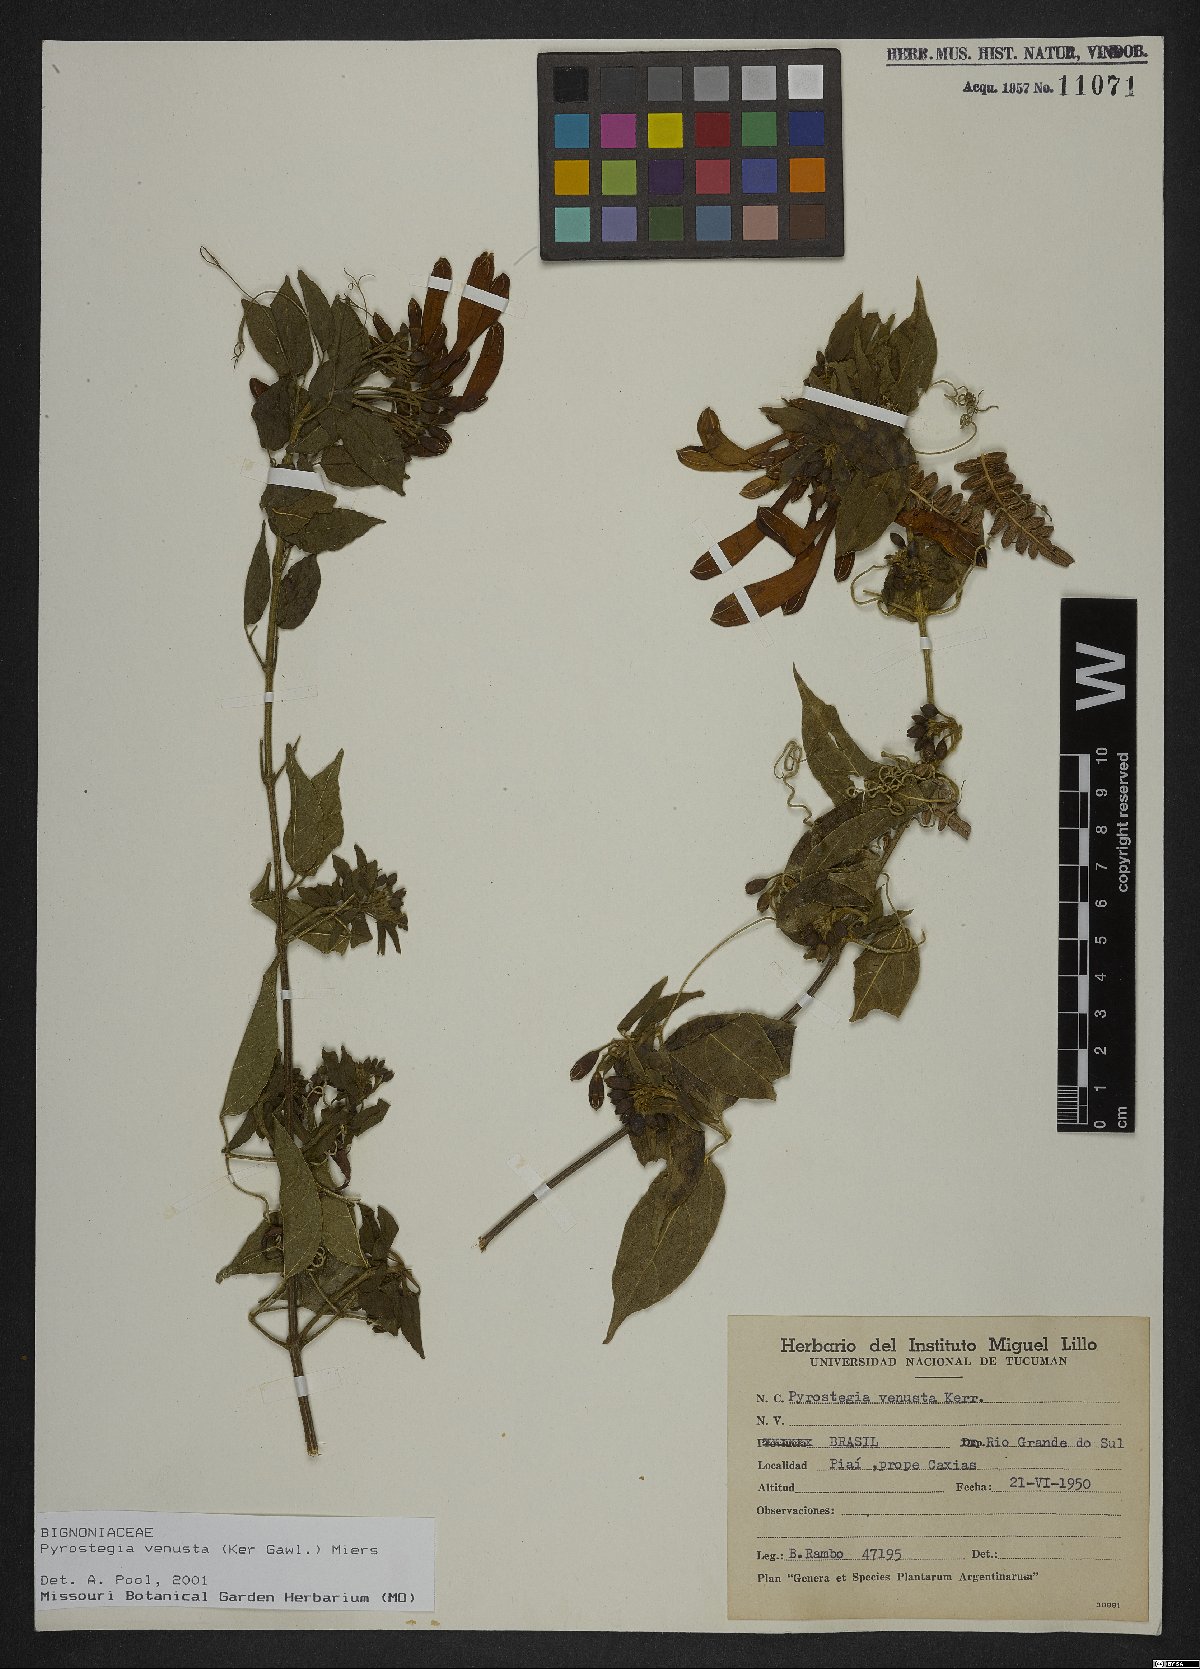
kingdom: Plantae
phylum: Tracheophyta
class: Magnoliopsida
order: Lamiales
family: Bignoniaceae
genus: Pyrostegia
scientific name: Pyrostegia venusta
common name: Flamevine
